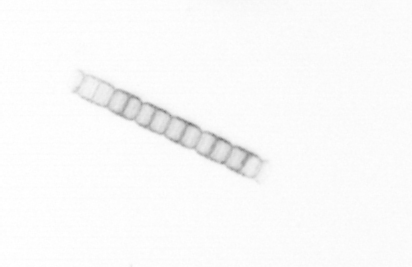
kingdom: Chromista
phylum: Ochrophyta
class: Bacillariophyceae
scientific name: Bacillariophyceae
